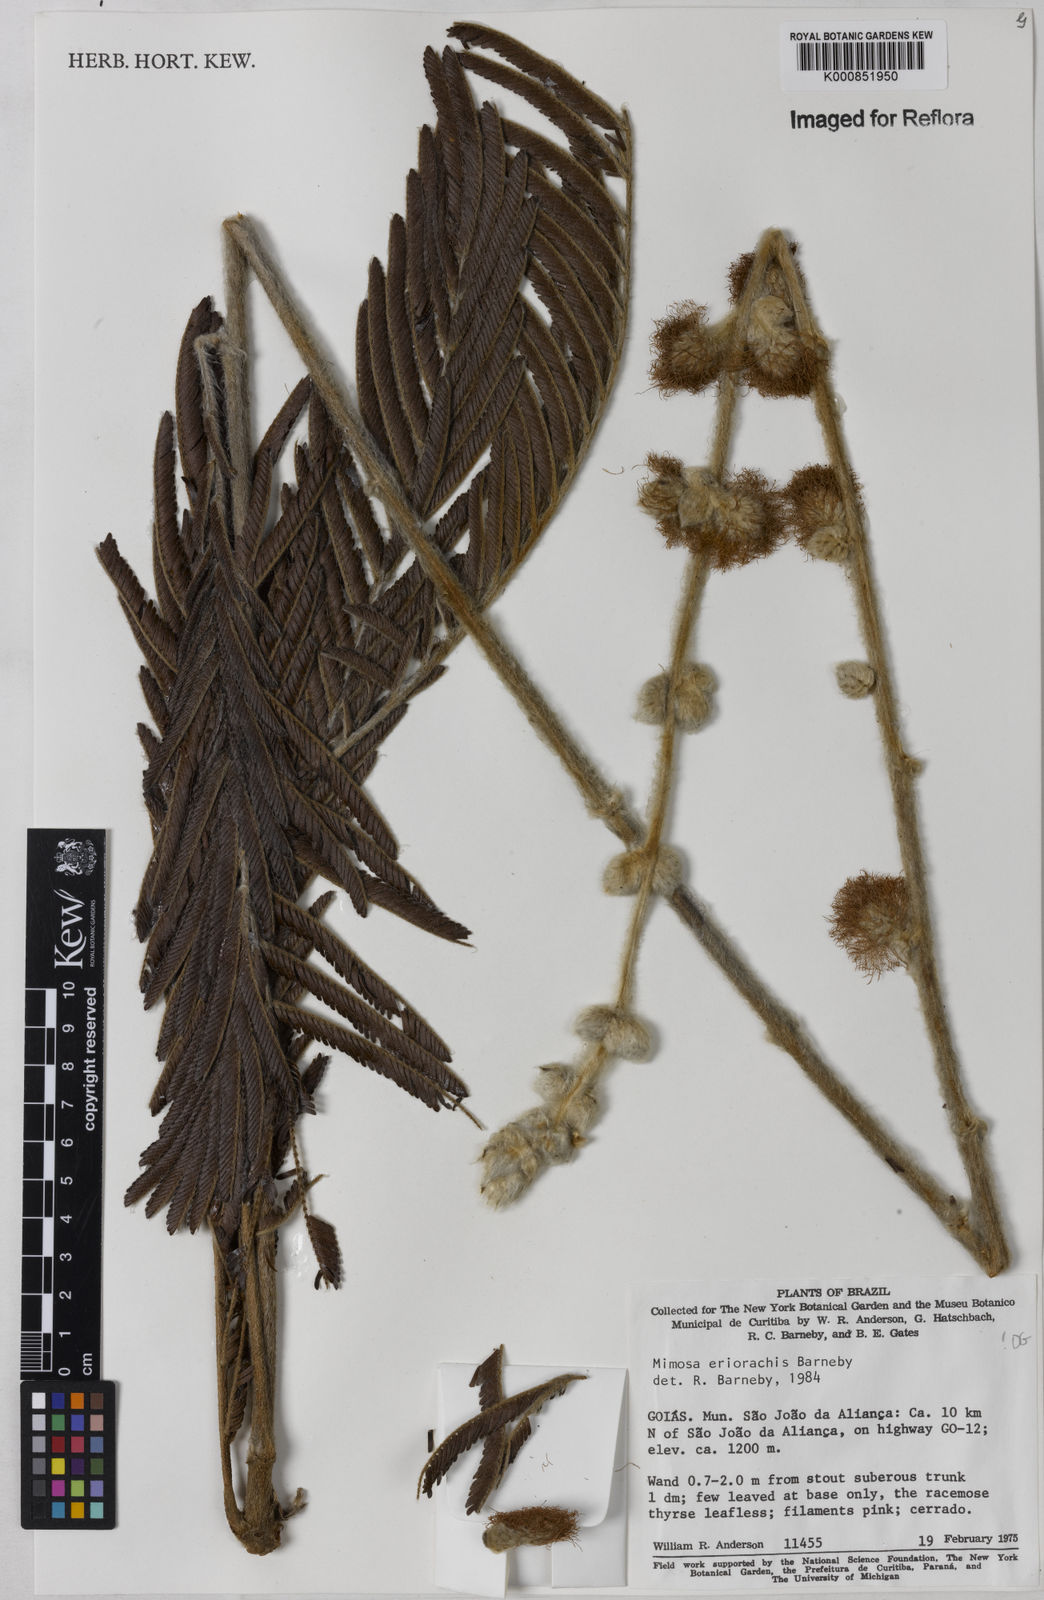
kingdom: Plantae
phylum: Tracheophyta
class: Magnoliopsida
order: Fabales
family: Fabaceae
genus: Mimosa
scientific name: Mimosa eriorrhachis
